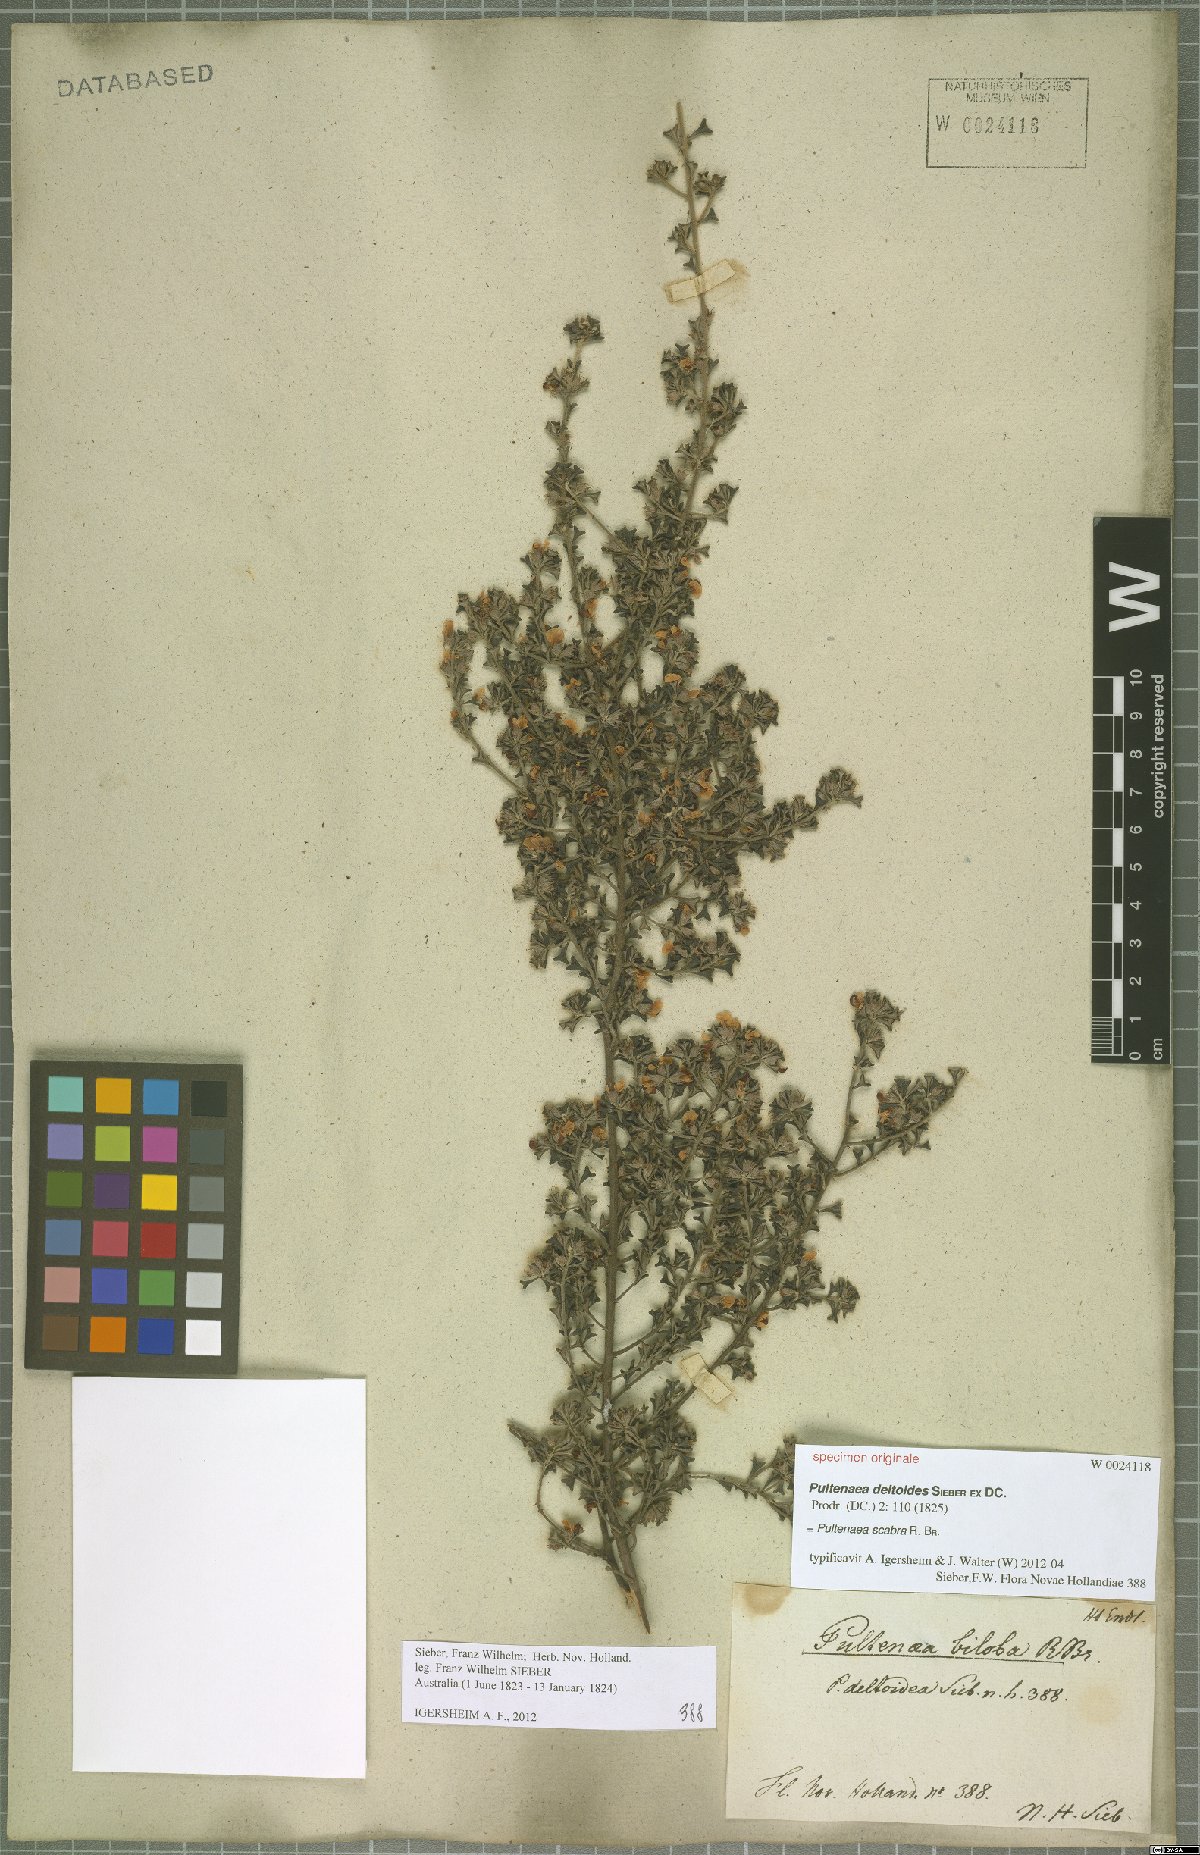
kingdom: Plantae
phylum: Tracheophyta
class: Magnoliopsida
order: Fabales
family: Fabaceae
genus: Pultenaea
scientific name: Pultenaea scabra
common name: Rough bush-pea
